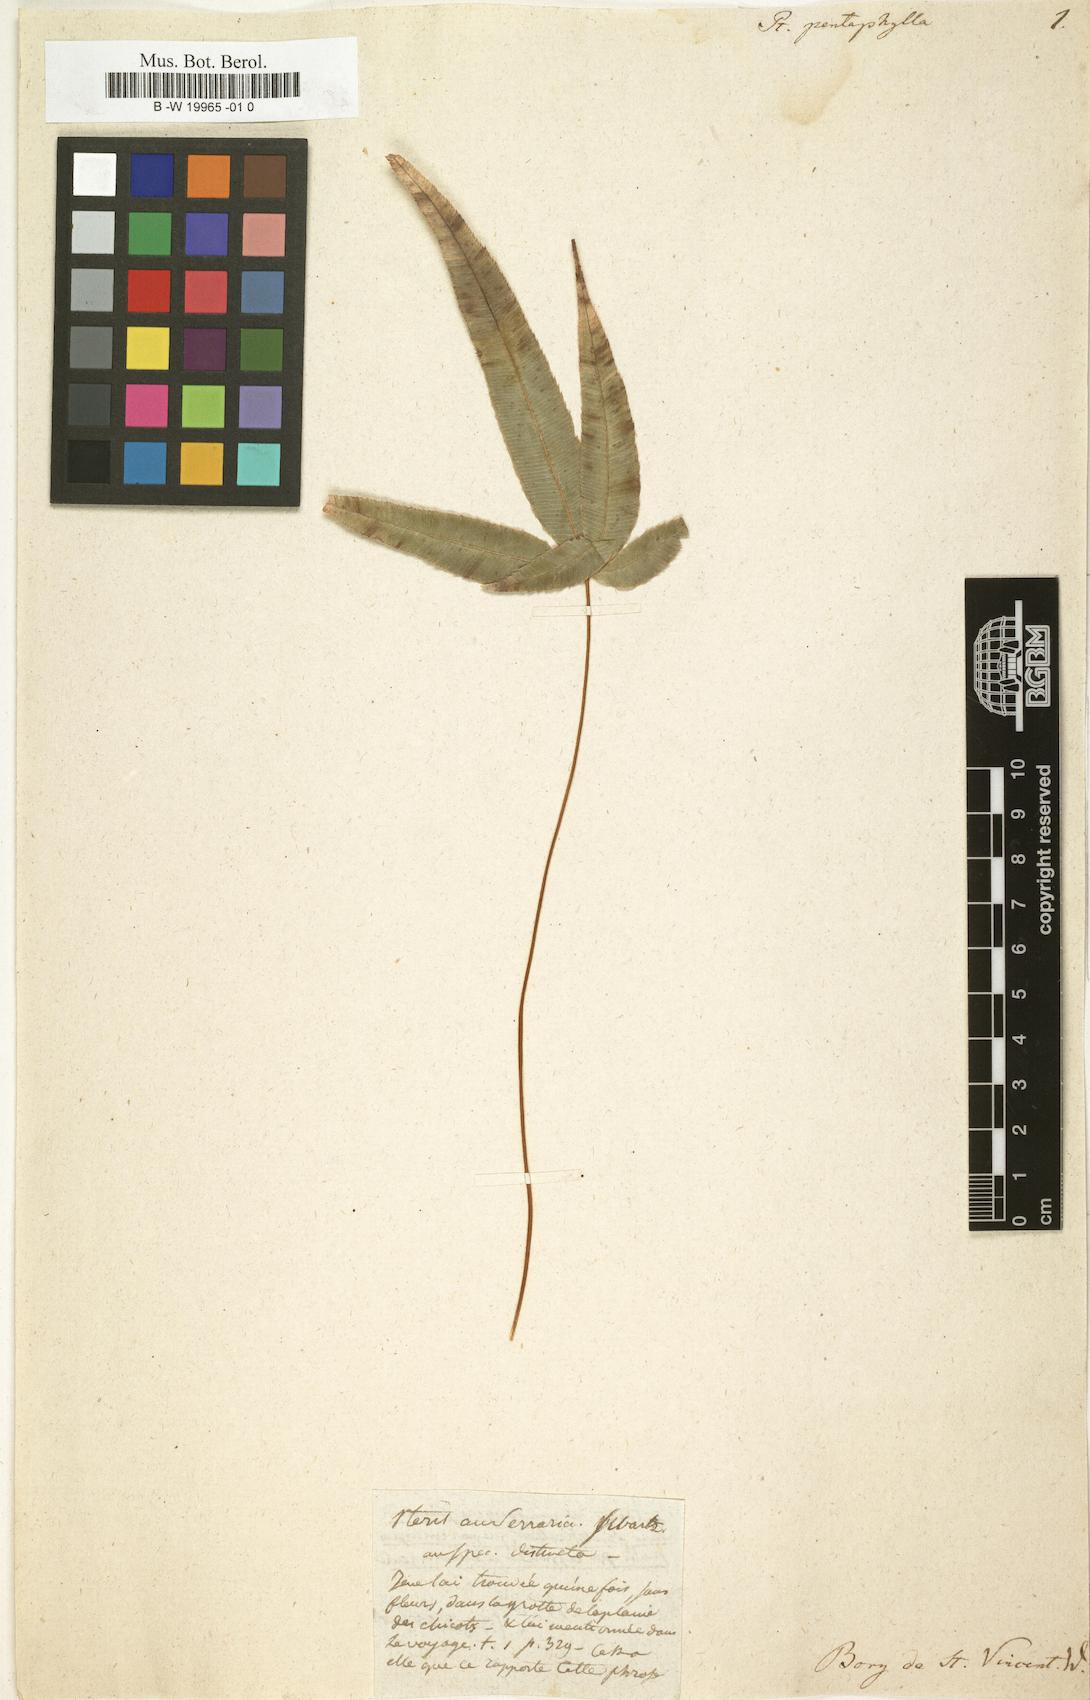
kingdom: Plantae
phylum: Tracheophyta
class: Polypodiopsida
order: Polypodiales
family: Pteridaceae
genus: Pteris
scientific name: Pteris cretica
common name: Ribbon fern
